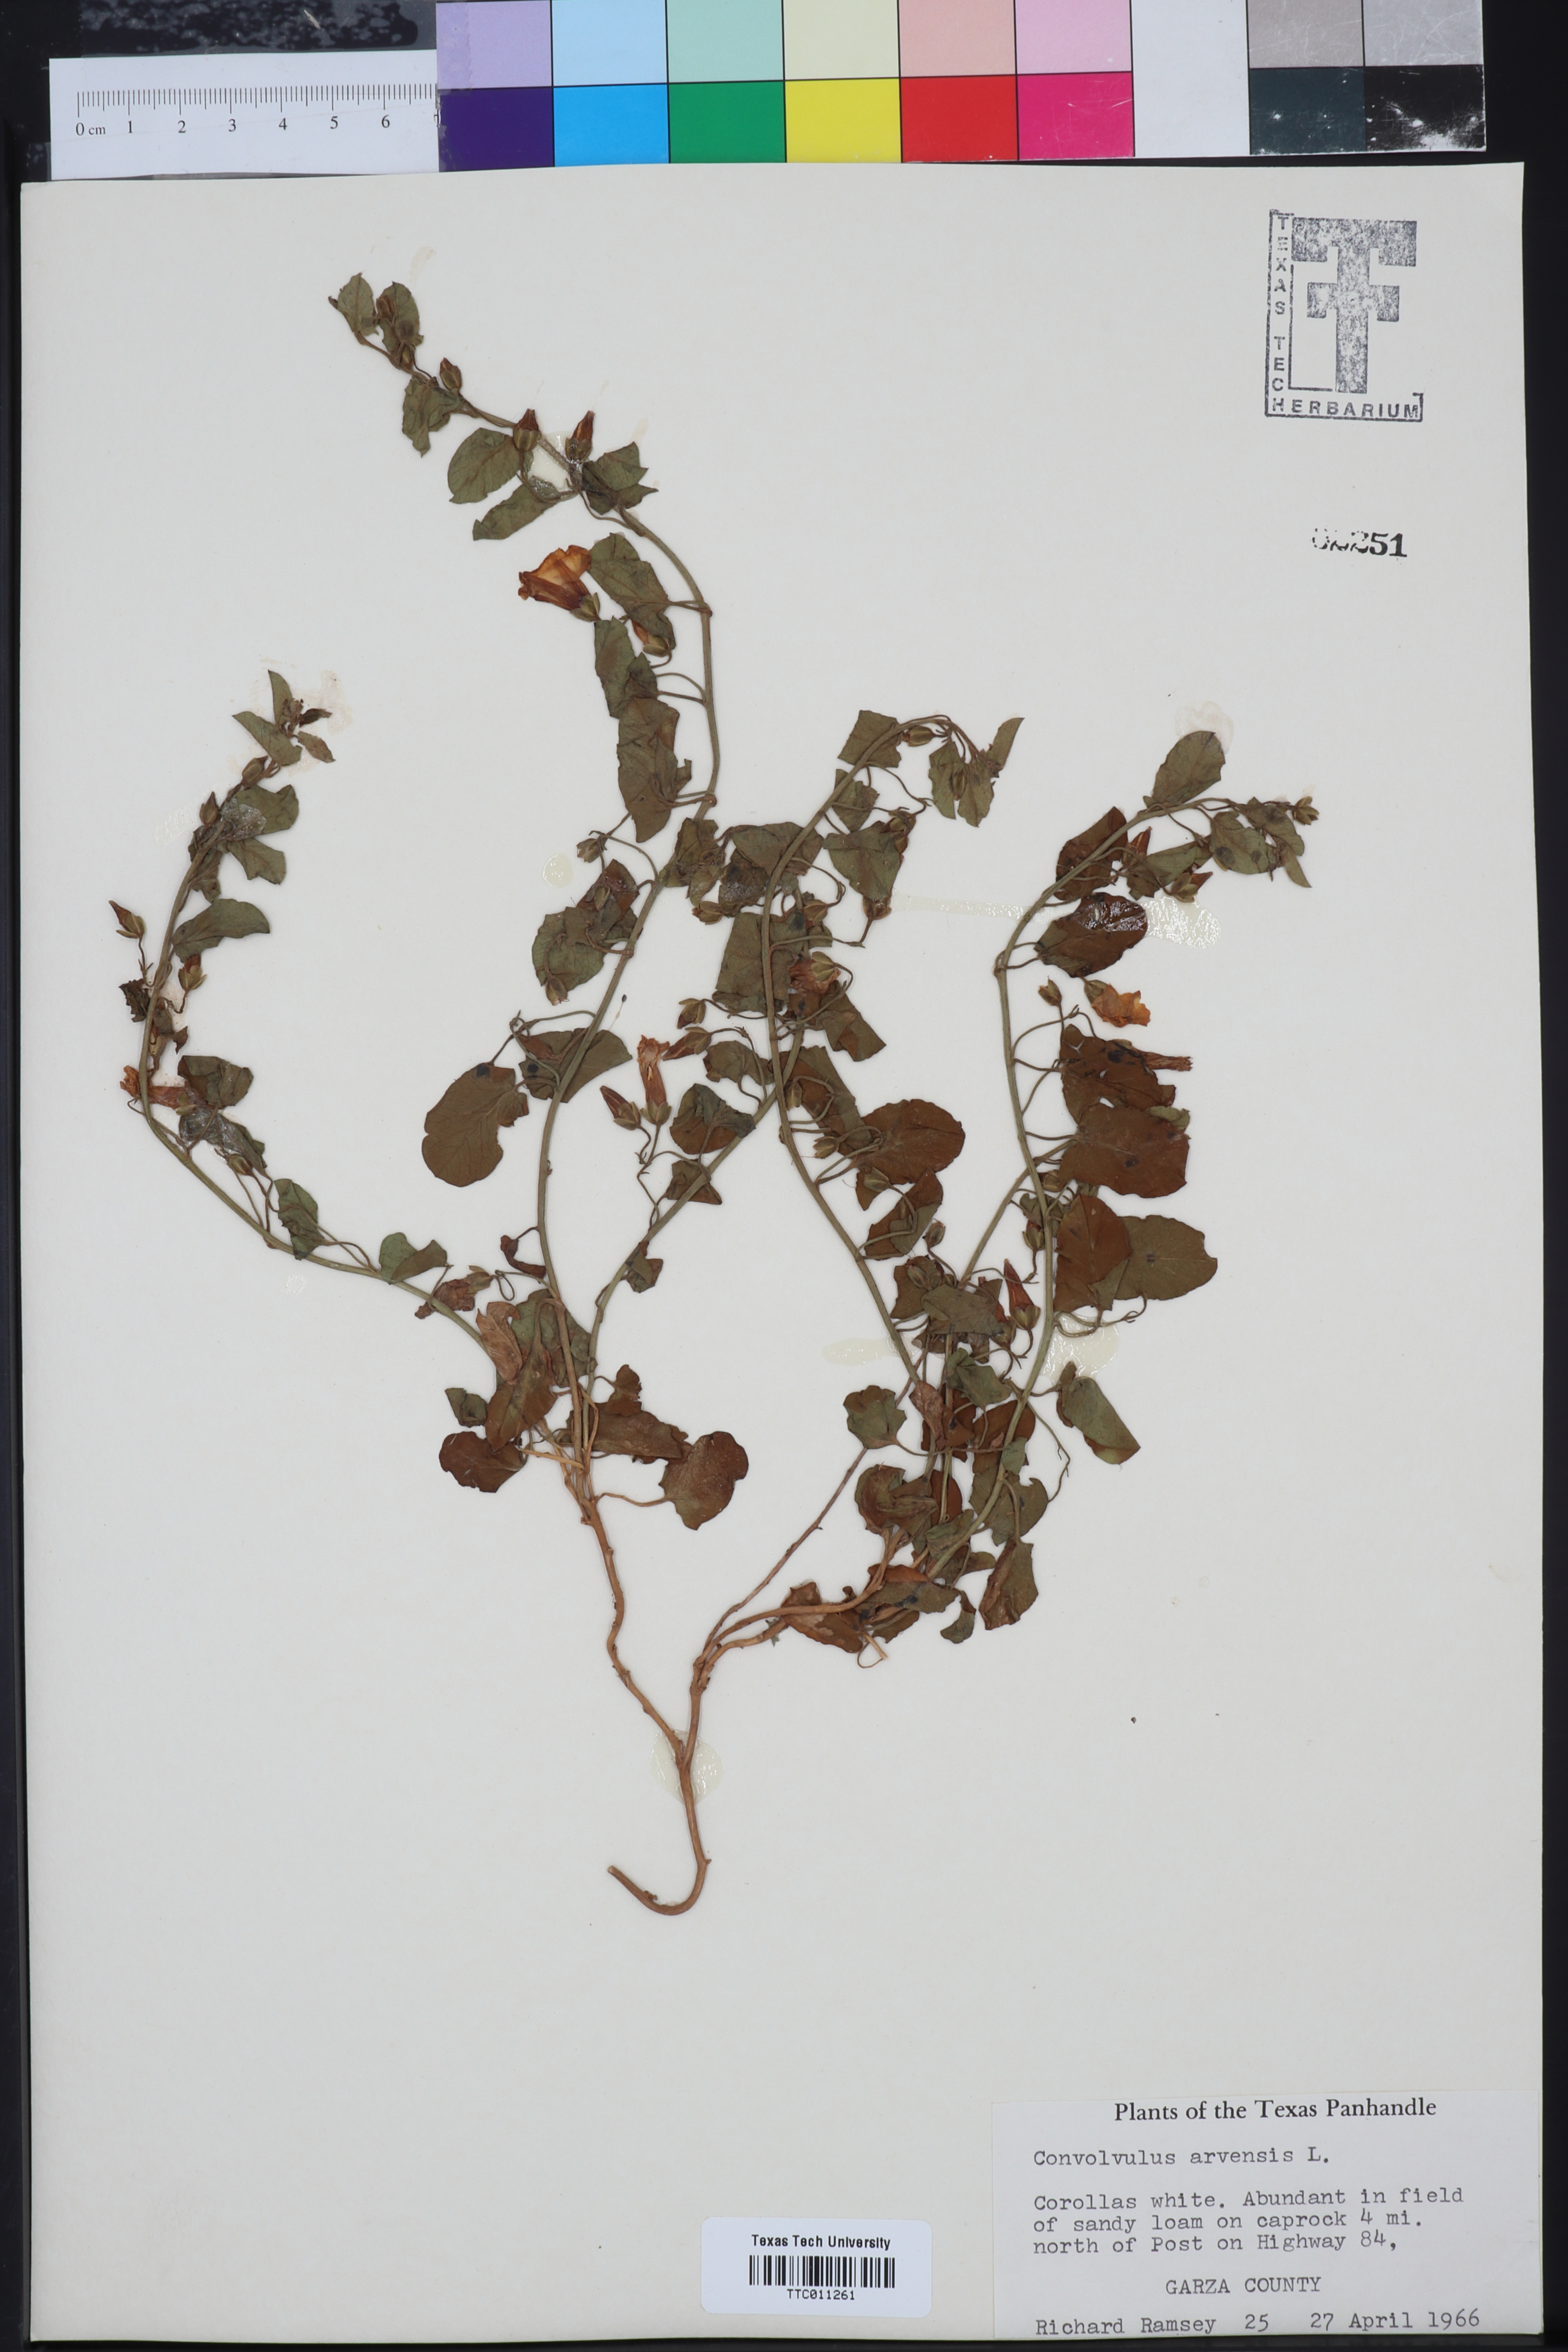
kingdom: Plantae
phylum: Tracheophyta
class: Magnoliopsida
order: Solanales
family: Convolvulaceae
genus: Convolvulus
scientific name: Convolvulus arvensis
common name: Field bindweed
